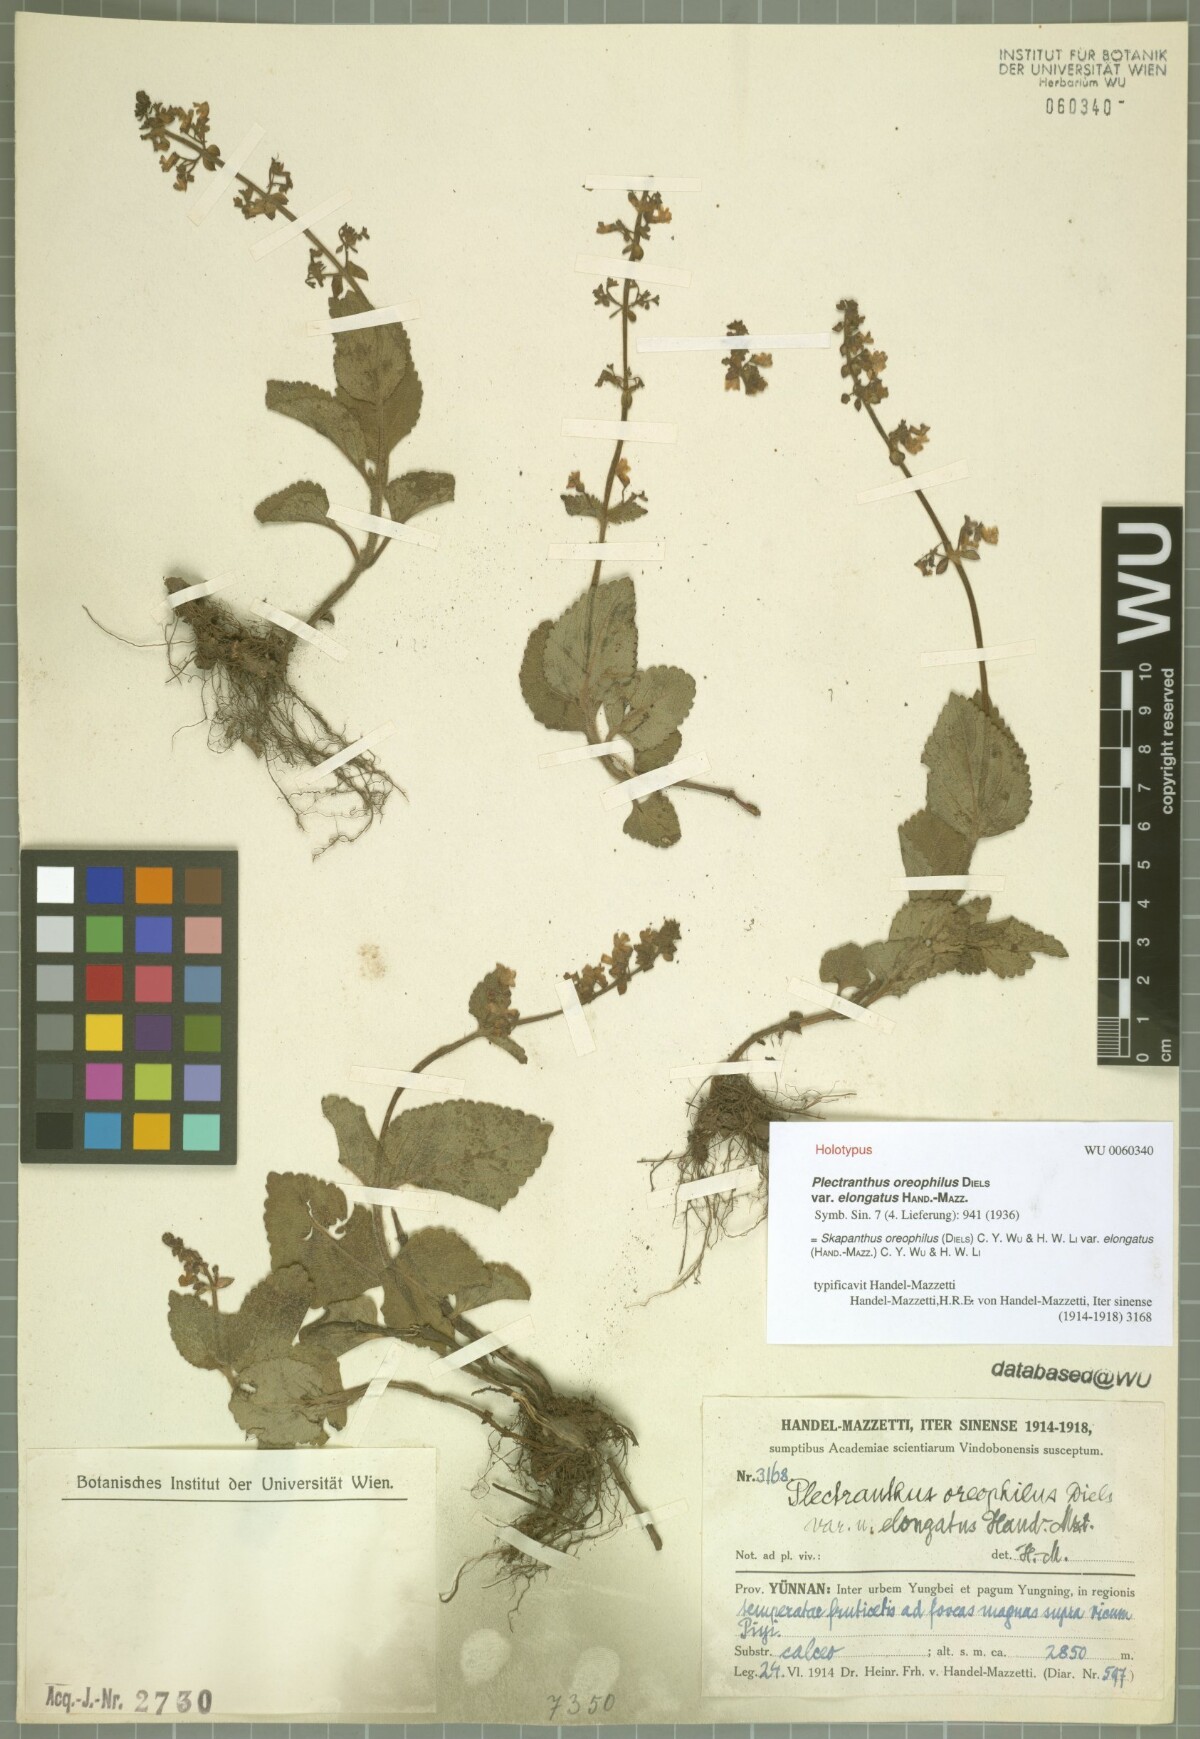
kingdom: Plantae
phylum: Tracheophyta
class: Magnoliopsida
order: Lamiales
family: Lamiaceae
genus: Isodon
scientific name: Isodon oreophilus
